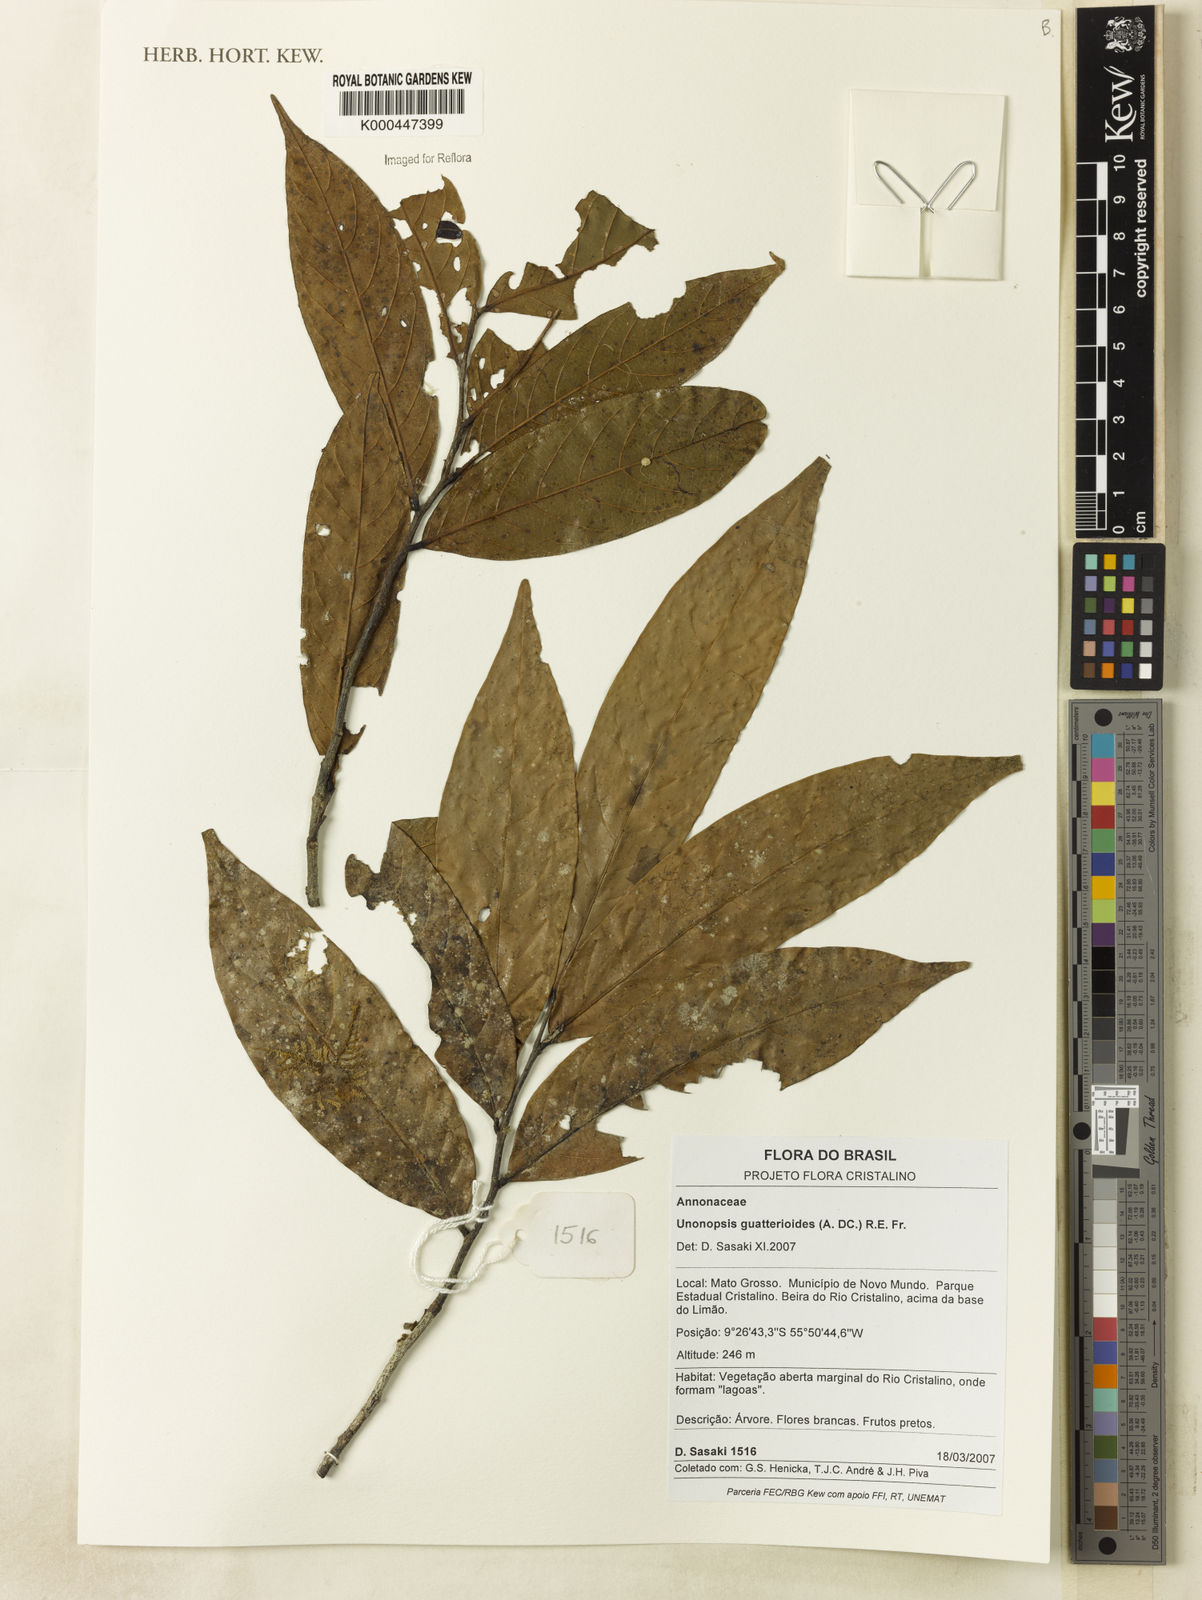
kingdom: Plantae
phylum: Tracheophyta
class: Magnoliopsida
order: Magnoliales
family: Annonaceae
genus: Unonopsis
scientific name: Unonopsis guatterioides
